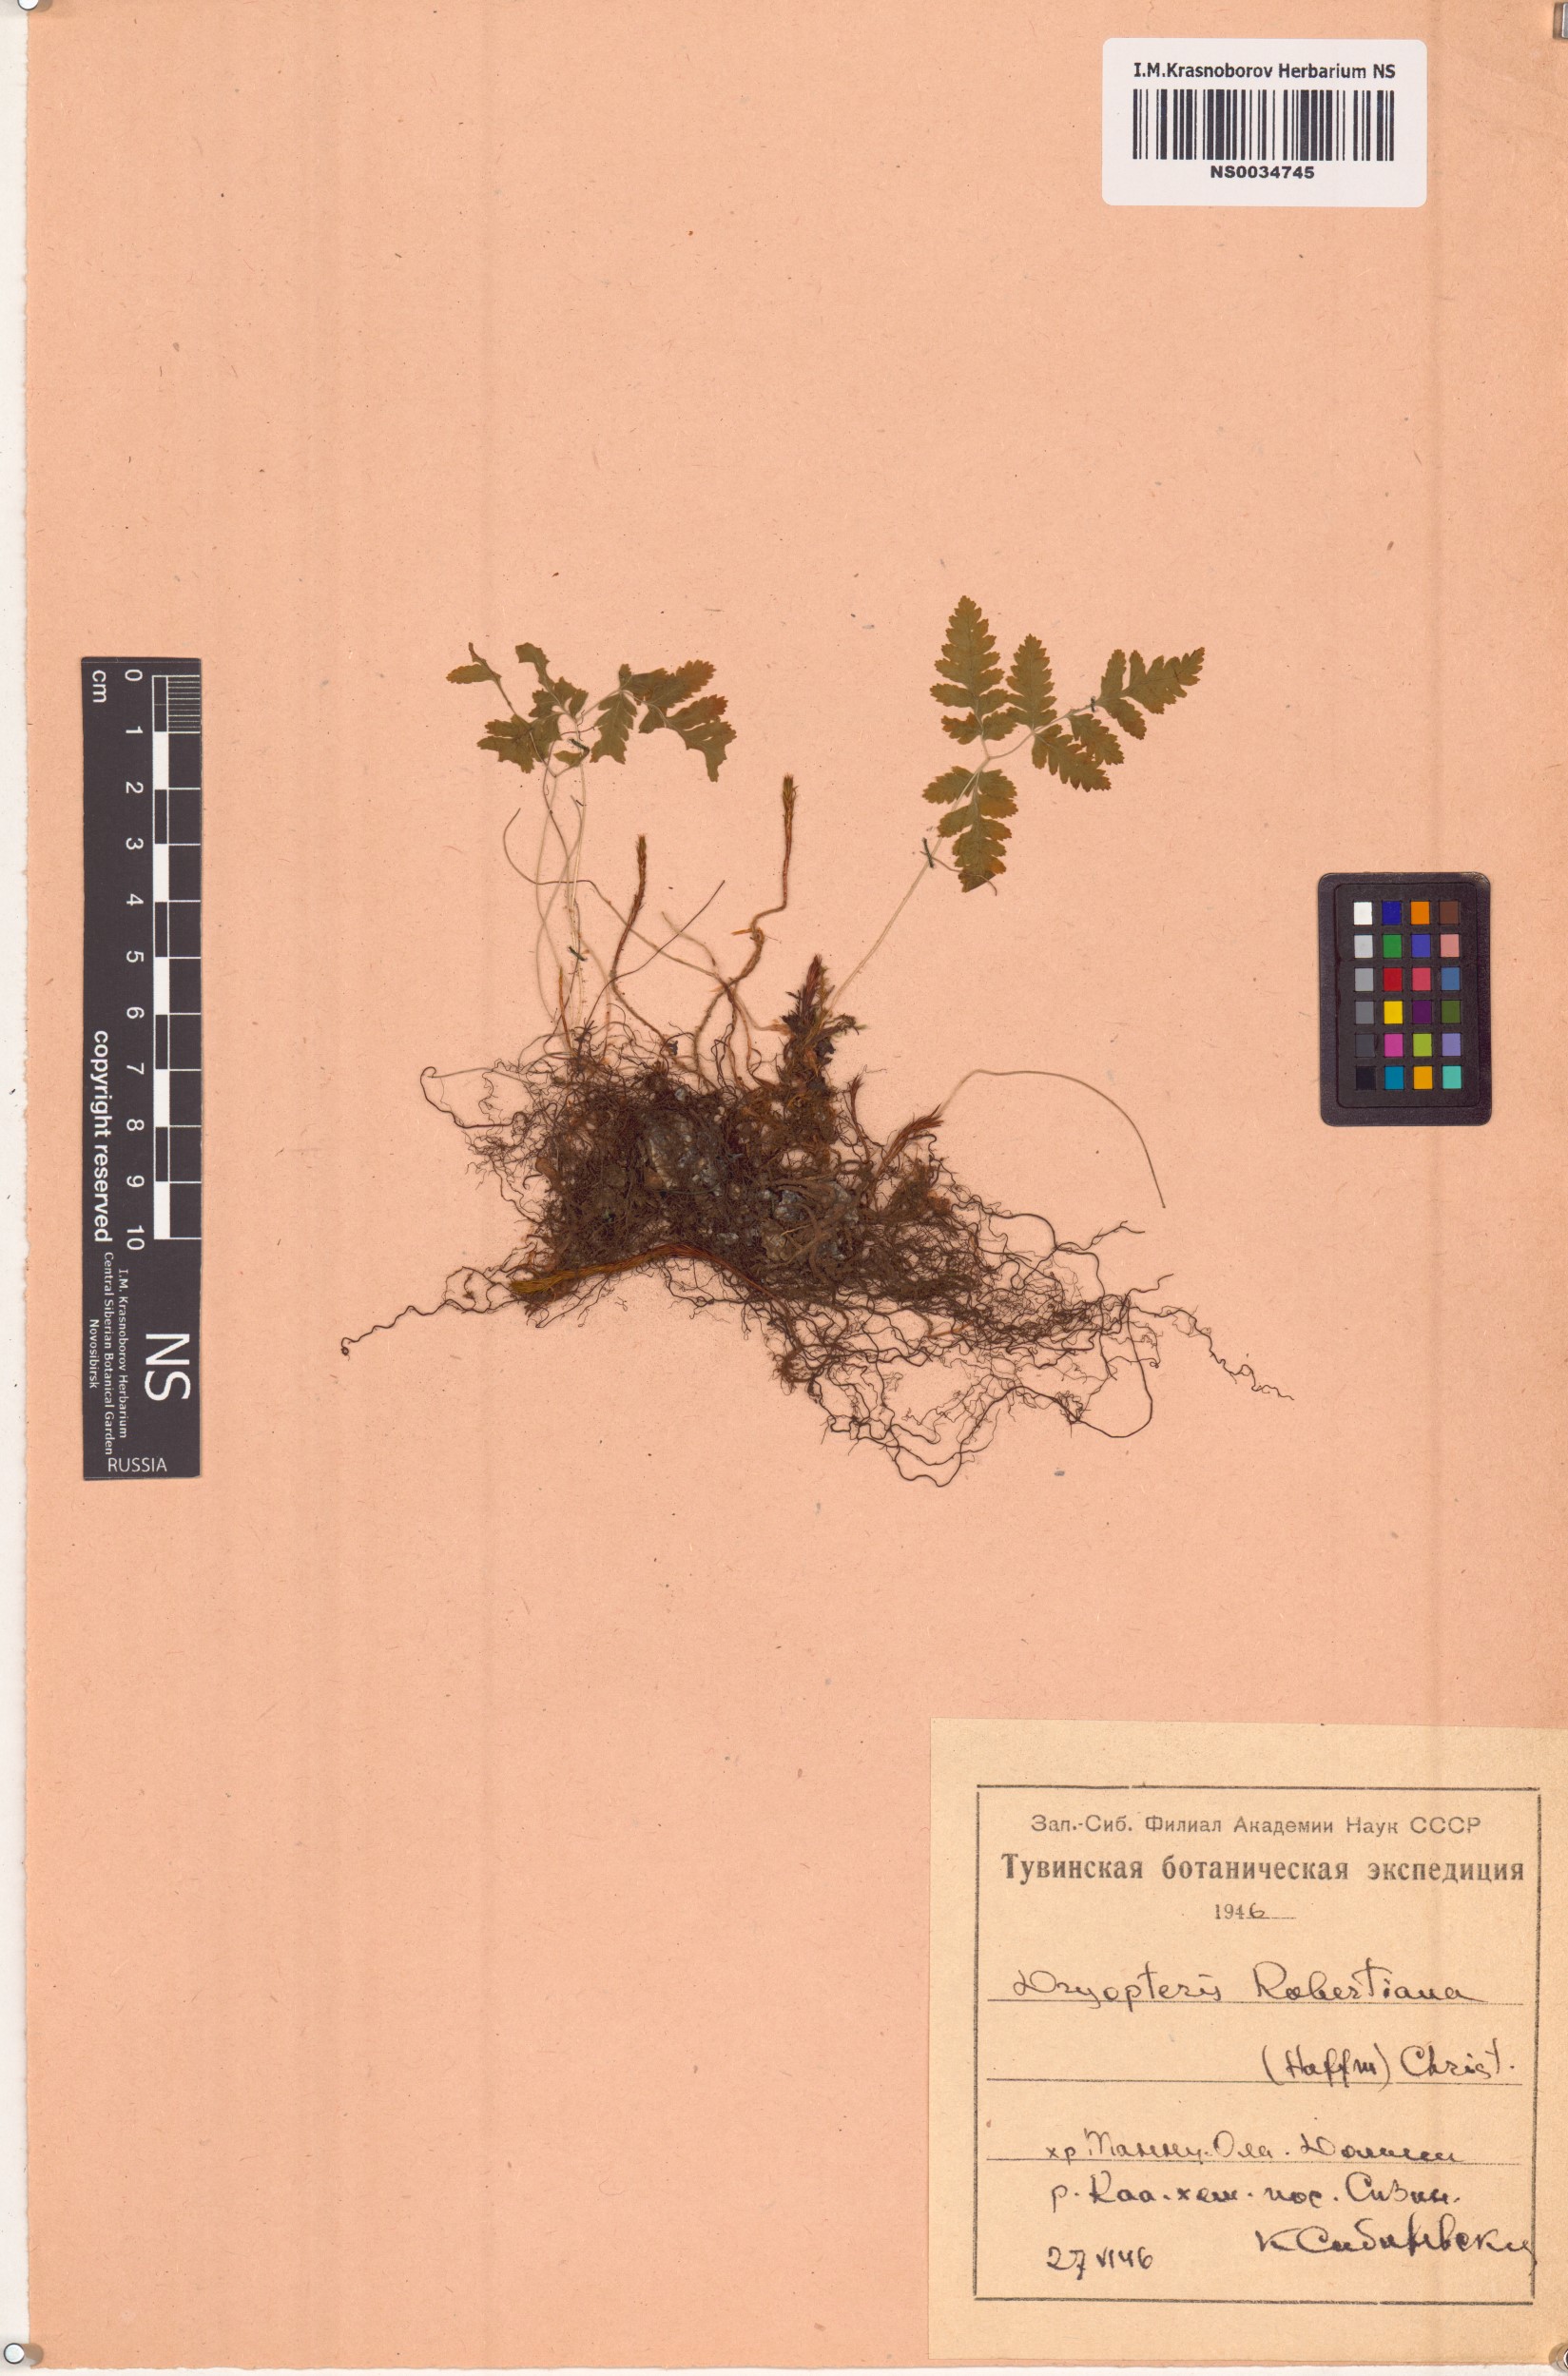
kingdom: Plantae
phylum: Tracheophyta
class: Polypodiopsida
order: Polypodiales
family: Cystopteridaceae
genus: Gymnocarpium
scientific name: Gymnocarpium robertianum
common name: Limestone fern
